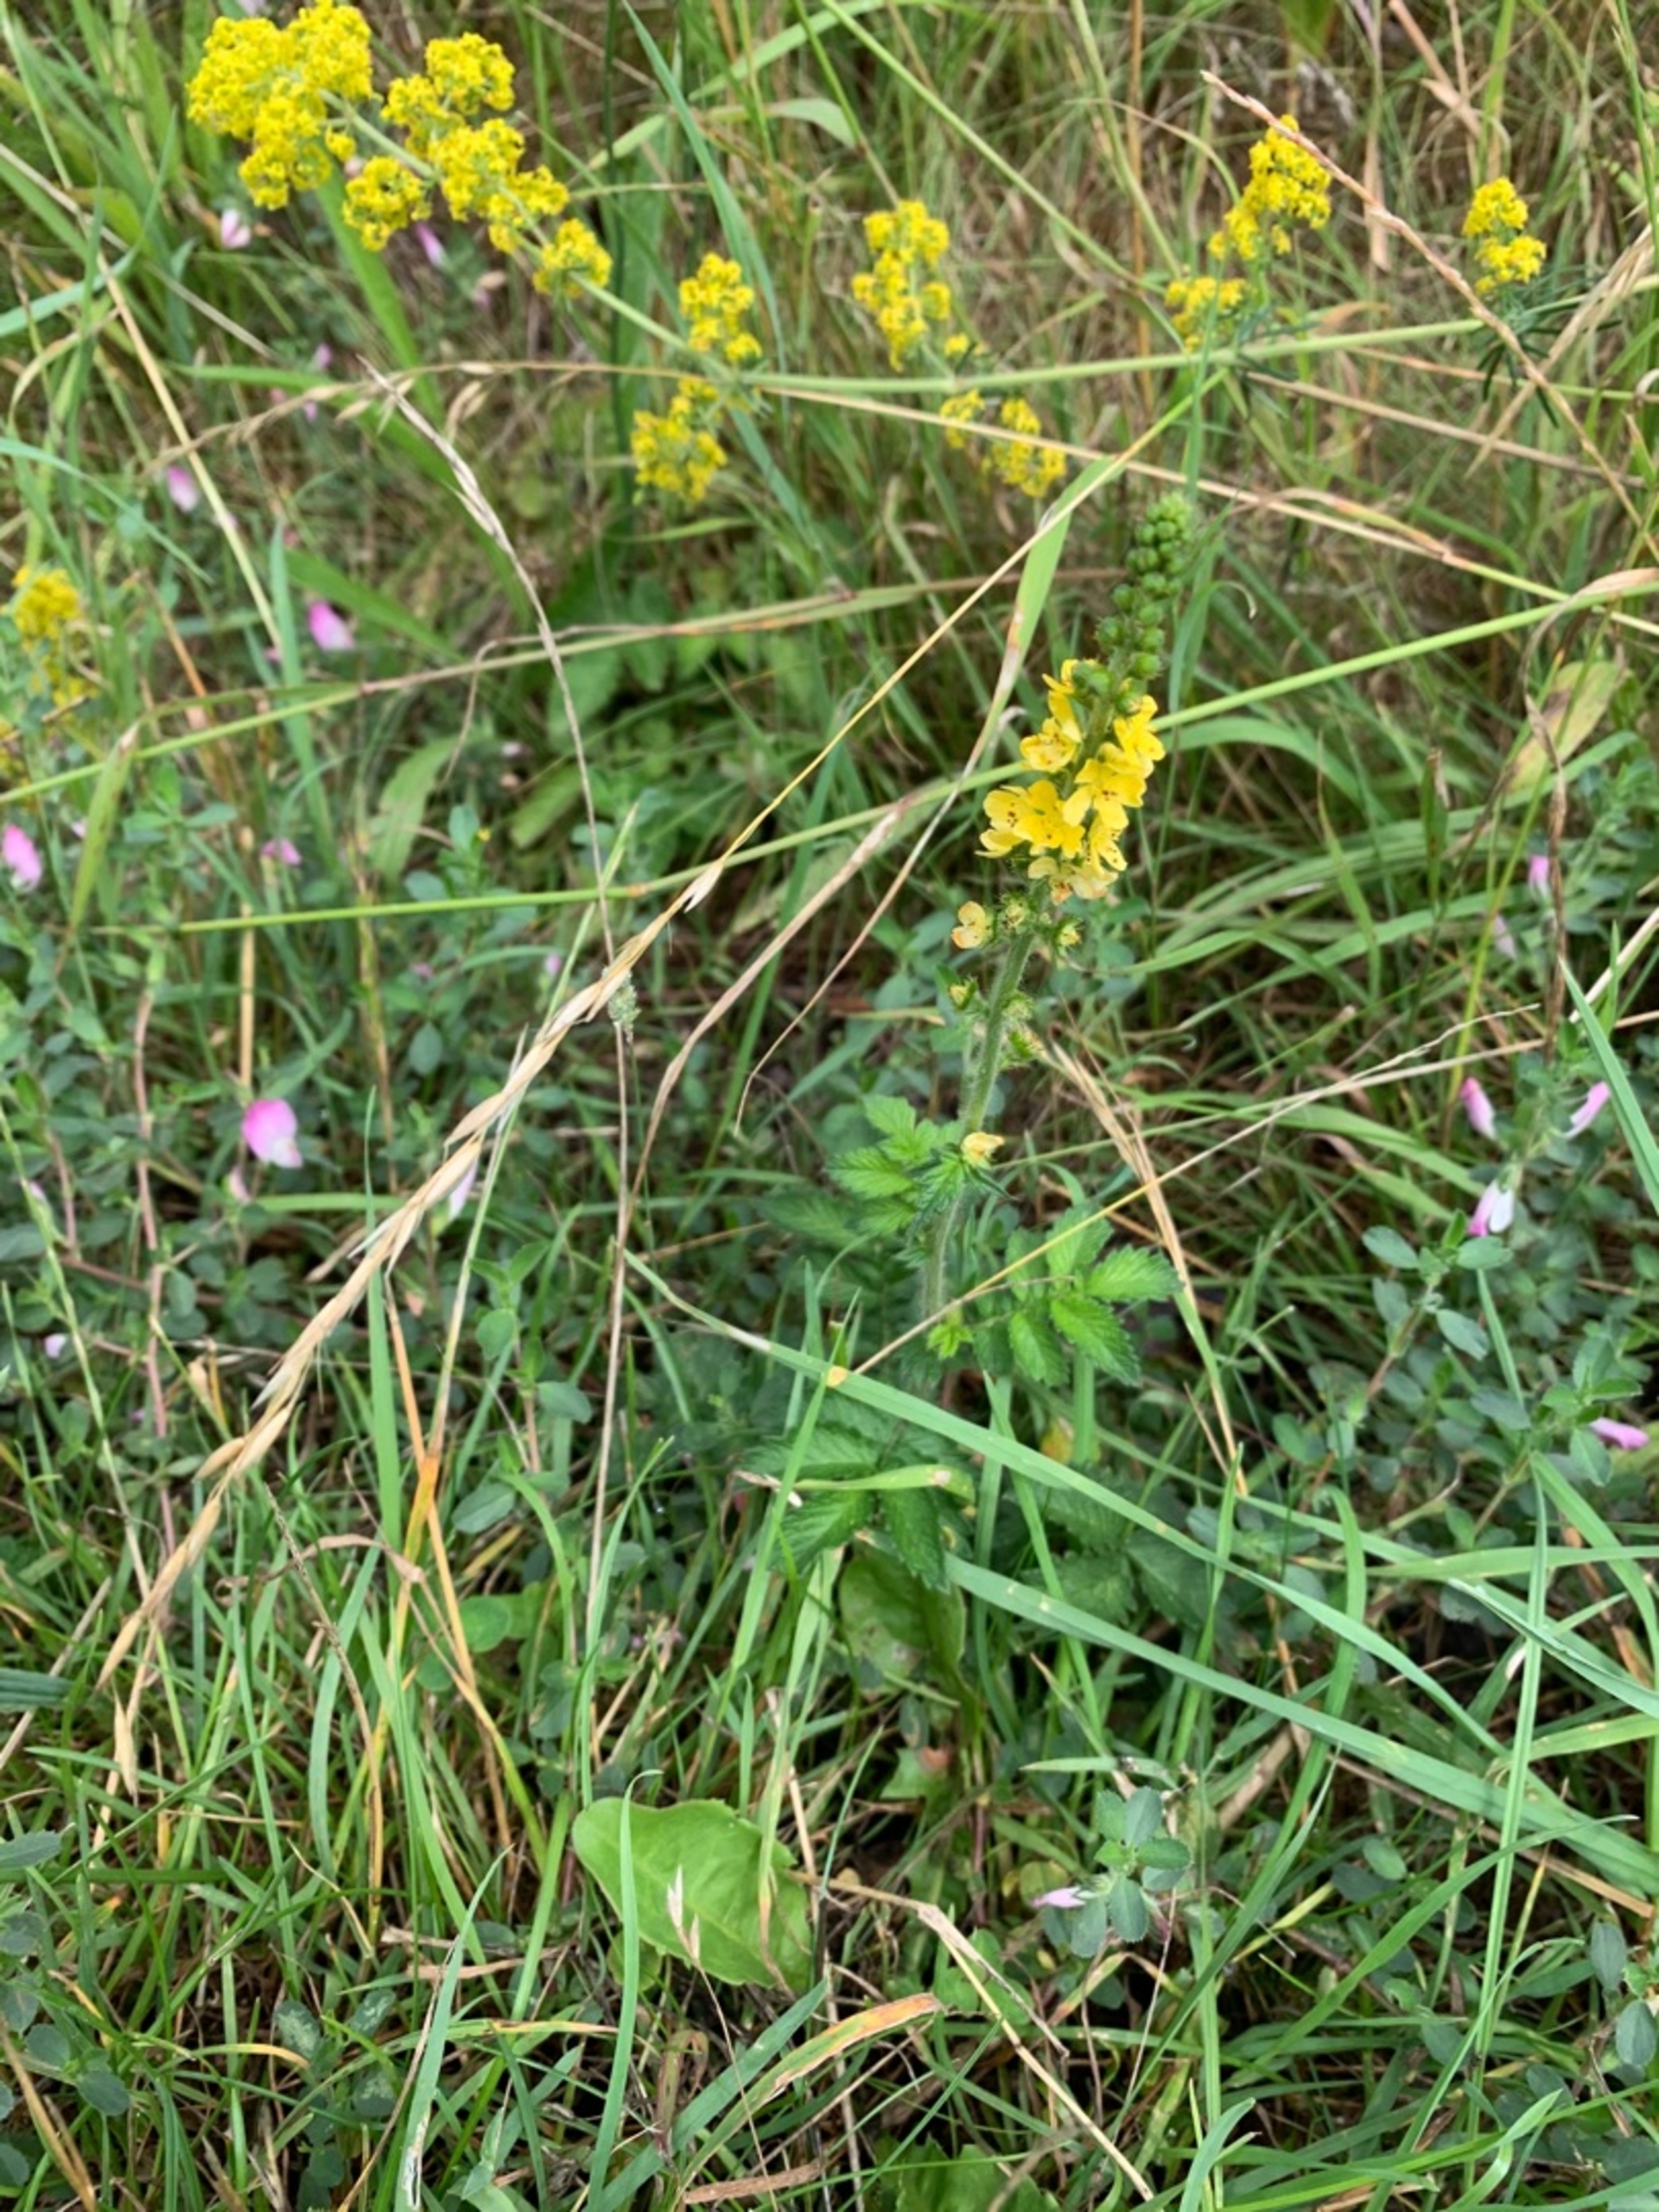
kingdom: Plantae
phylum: Tracheophyta
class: Magnoliopsida
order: Rosales
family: Rosaceae
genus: Agrimonia
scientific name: Agrimonia eupatoria
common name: Almindelig agermåne
